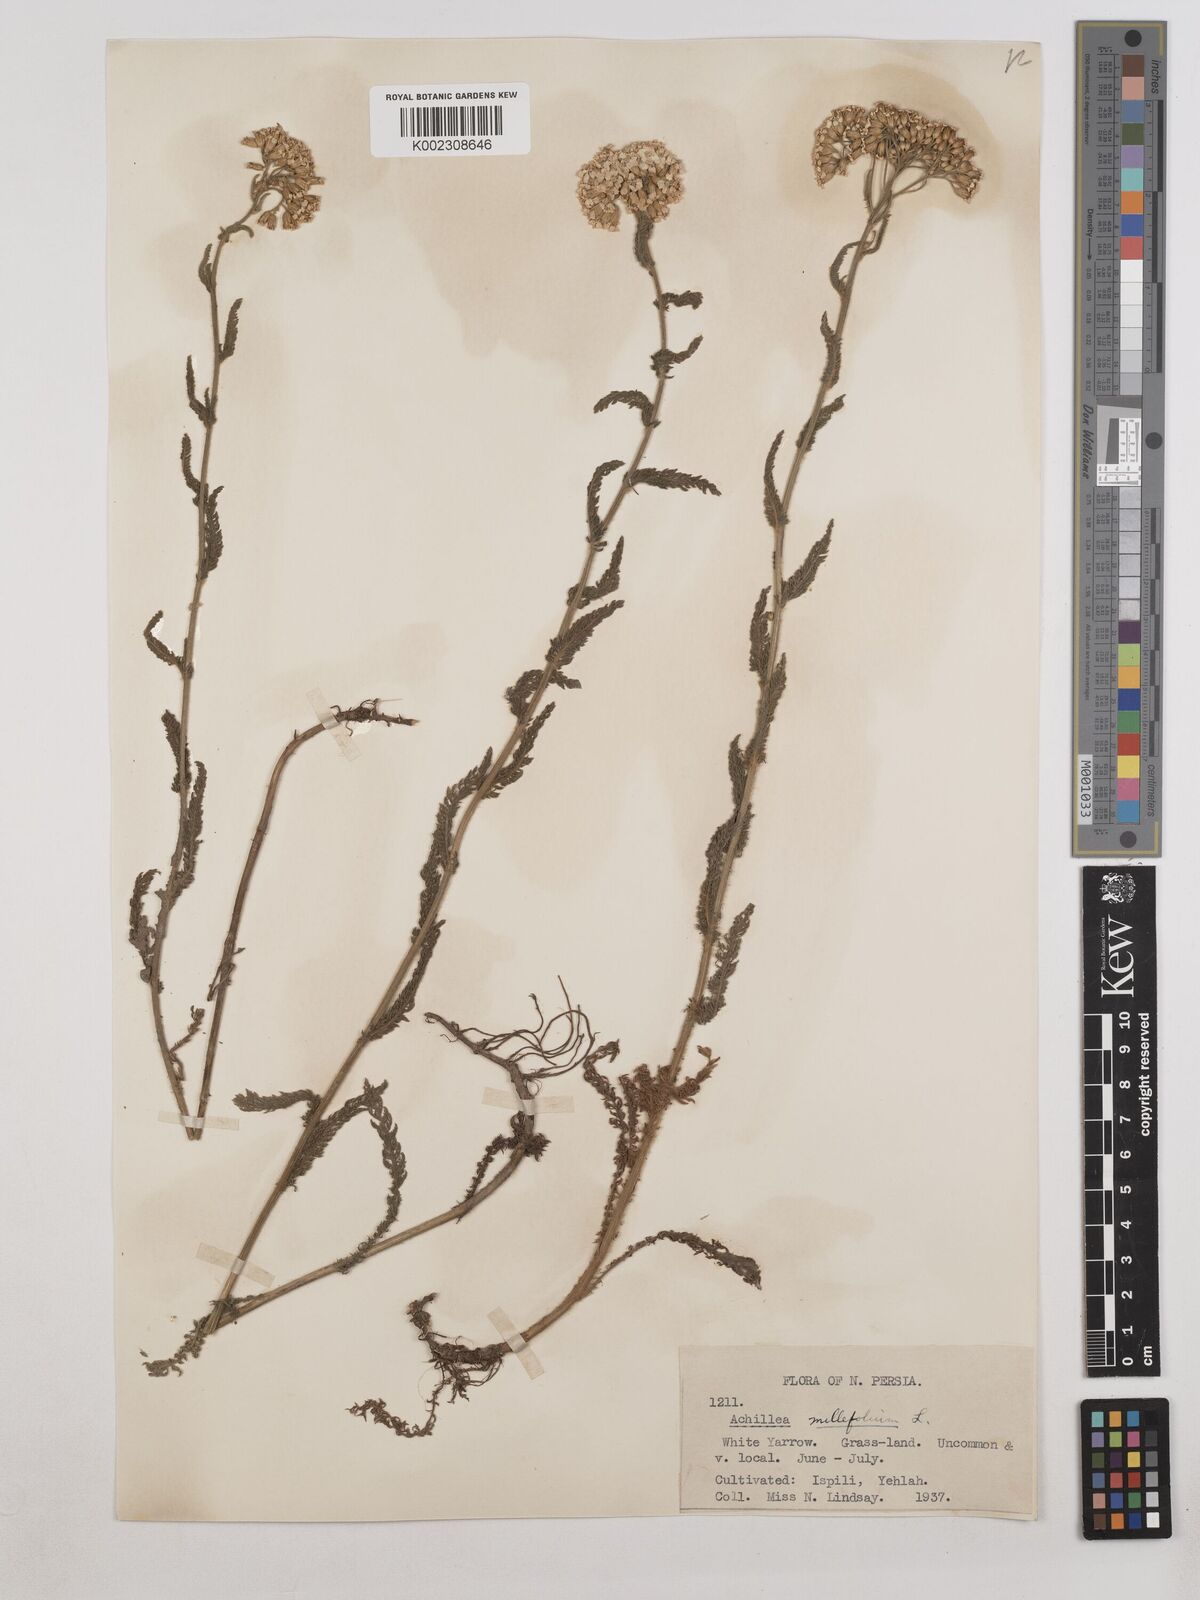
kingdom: Plantae
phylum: Tracheophyta
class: Magnoliopsida
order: Asterales
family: Asteraceae
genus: Achillea
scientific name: Achillea millefolium
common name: Yarrow
